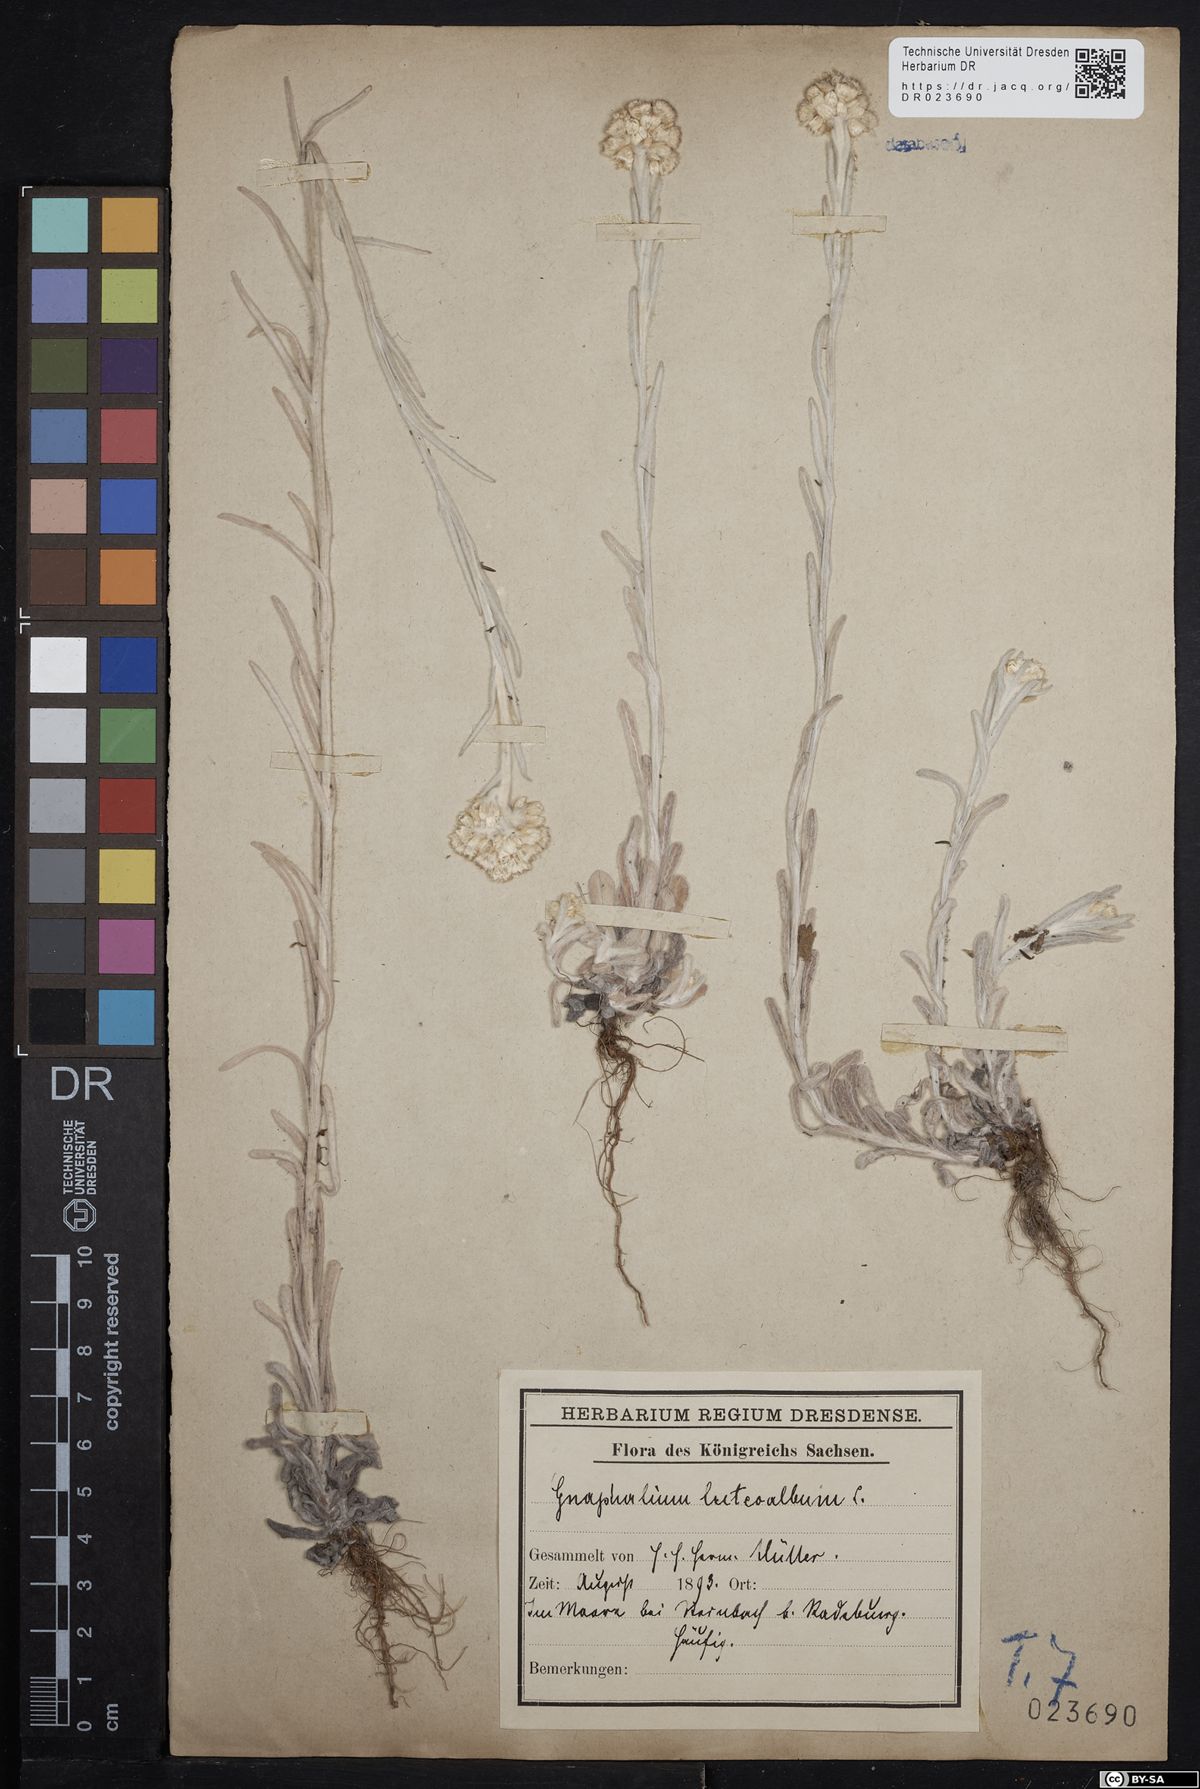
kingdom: Plantae
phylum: Tracheophyta
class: Magnoliopsida
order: Asterales
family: Asteraceae
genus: Helichrysum
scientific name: Helichrysum luteoalbum
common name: Daisy
